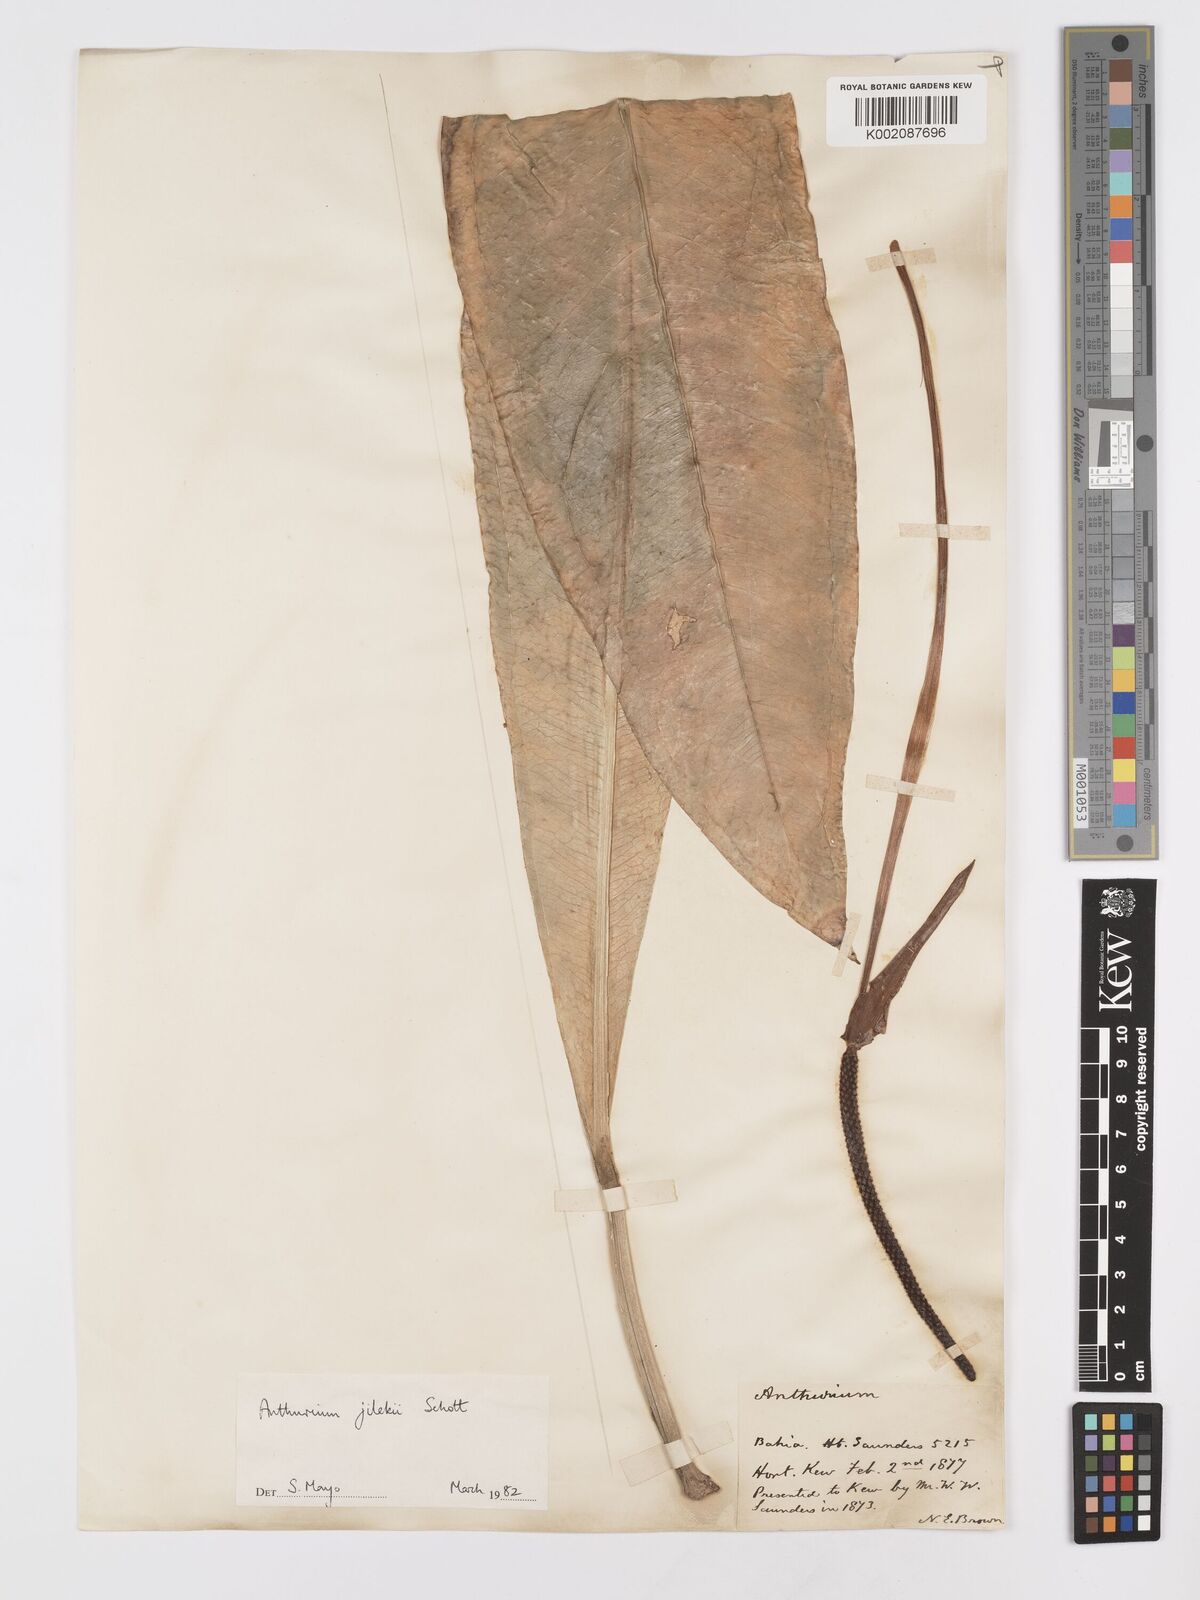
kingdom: Plantae
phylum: Tracheophyta
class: Liliopsida
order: Alismatales
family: Araceae
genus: Anthurium
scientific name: Anthurium jilekii
